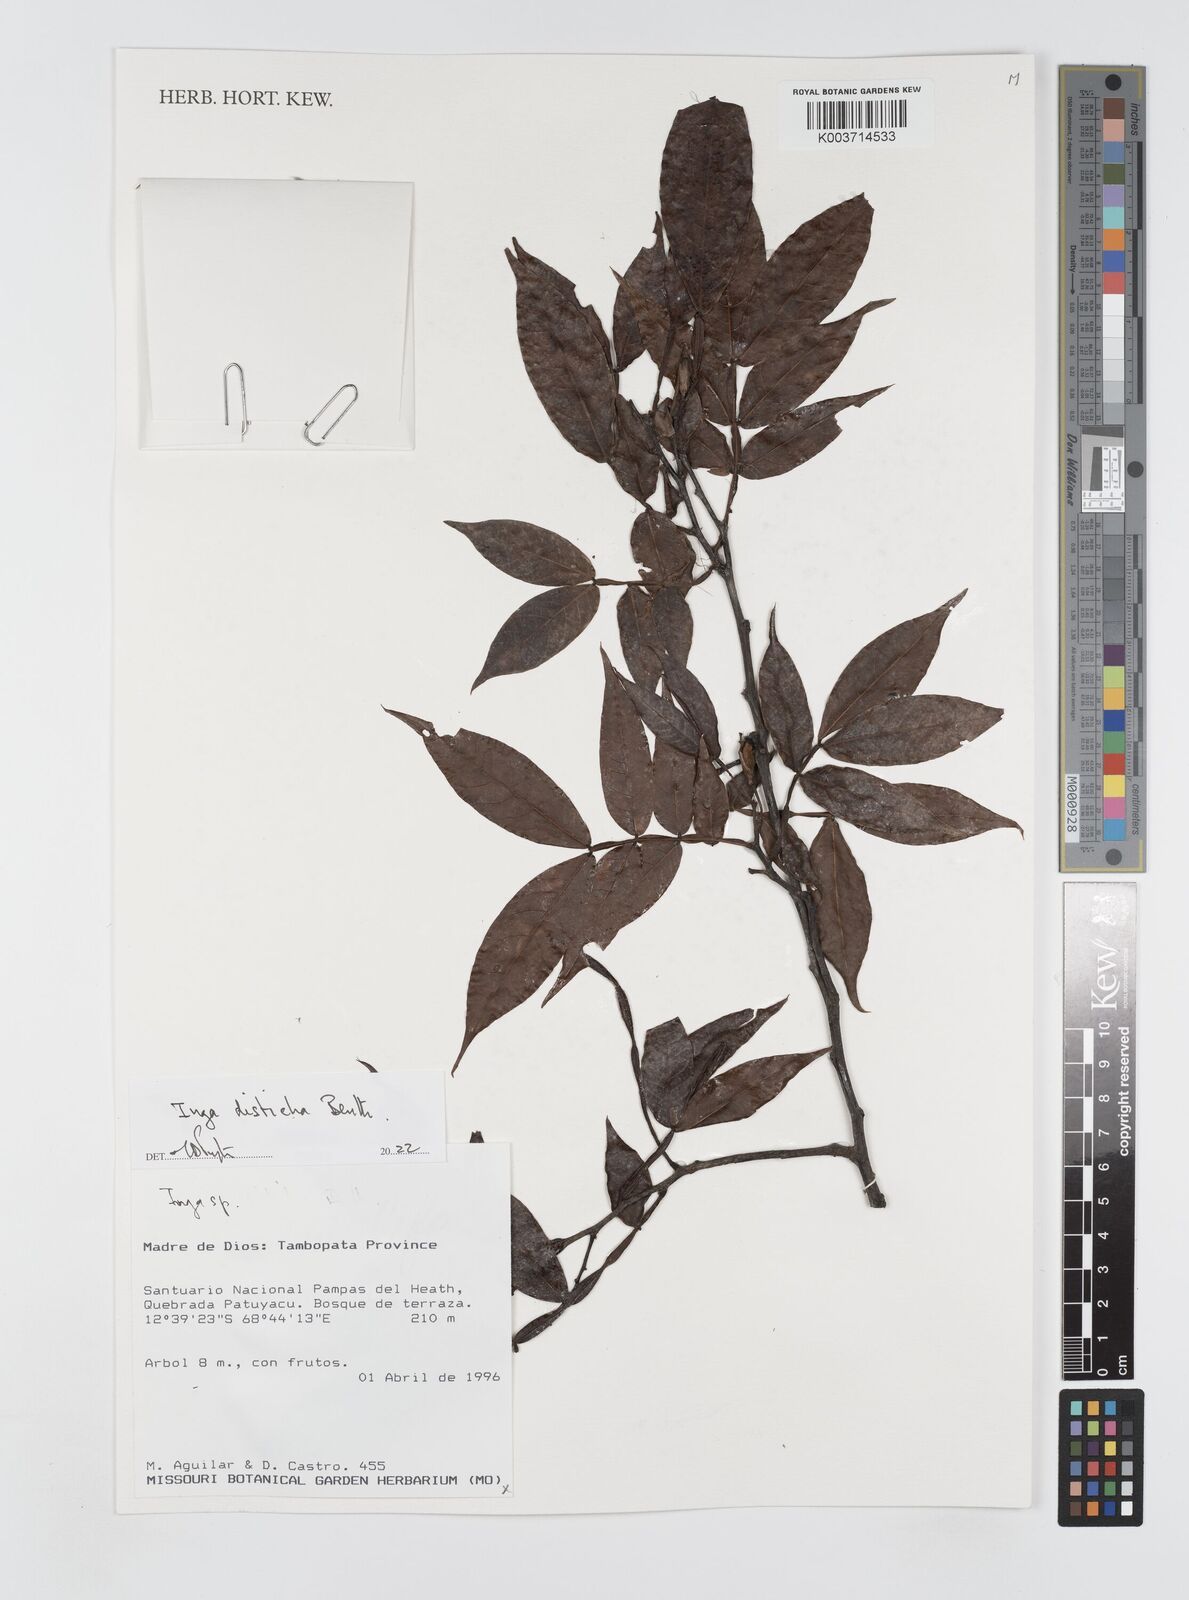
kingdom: Plantae
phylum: Tracheophyta
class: Magnoliopsida
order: Fabales
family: Fabaceae
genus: Inga
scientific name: Inga disticha
